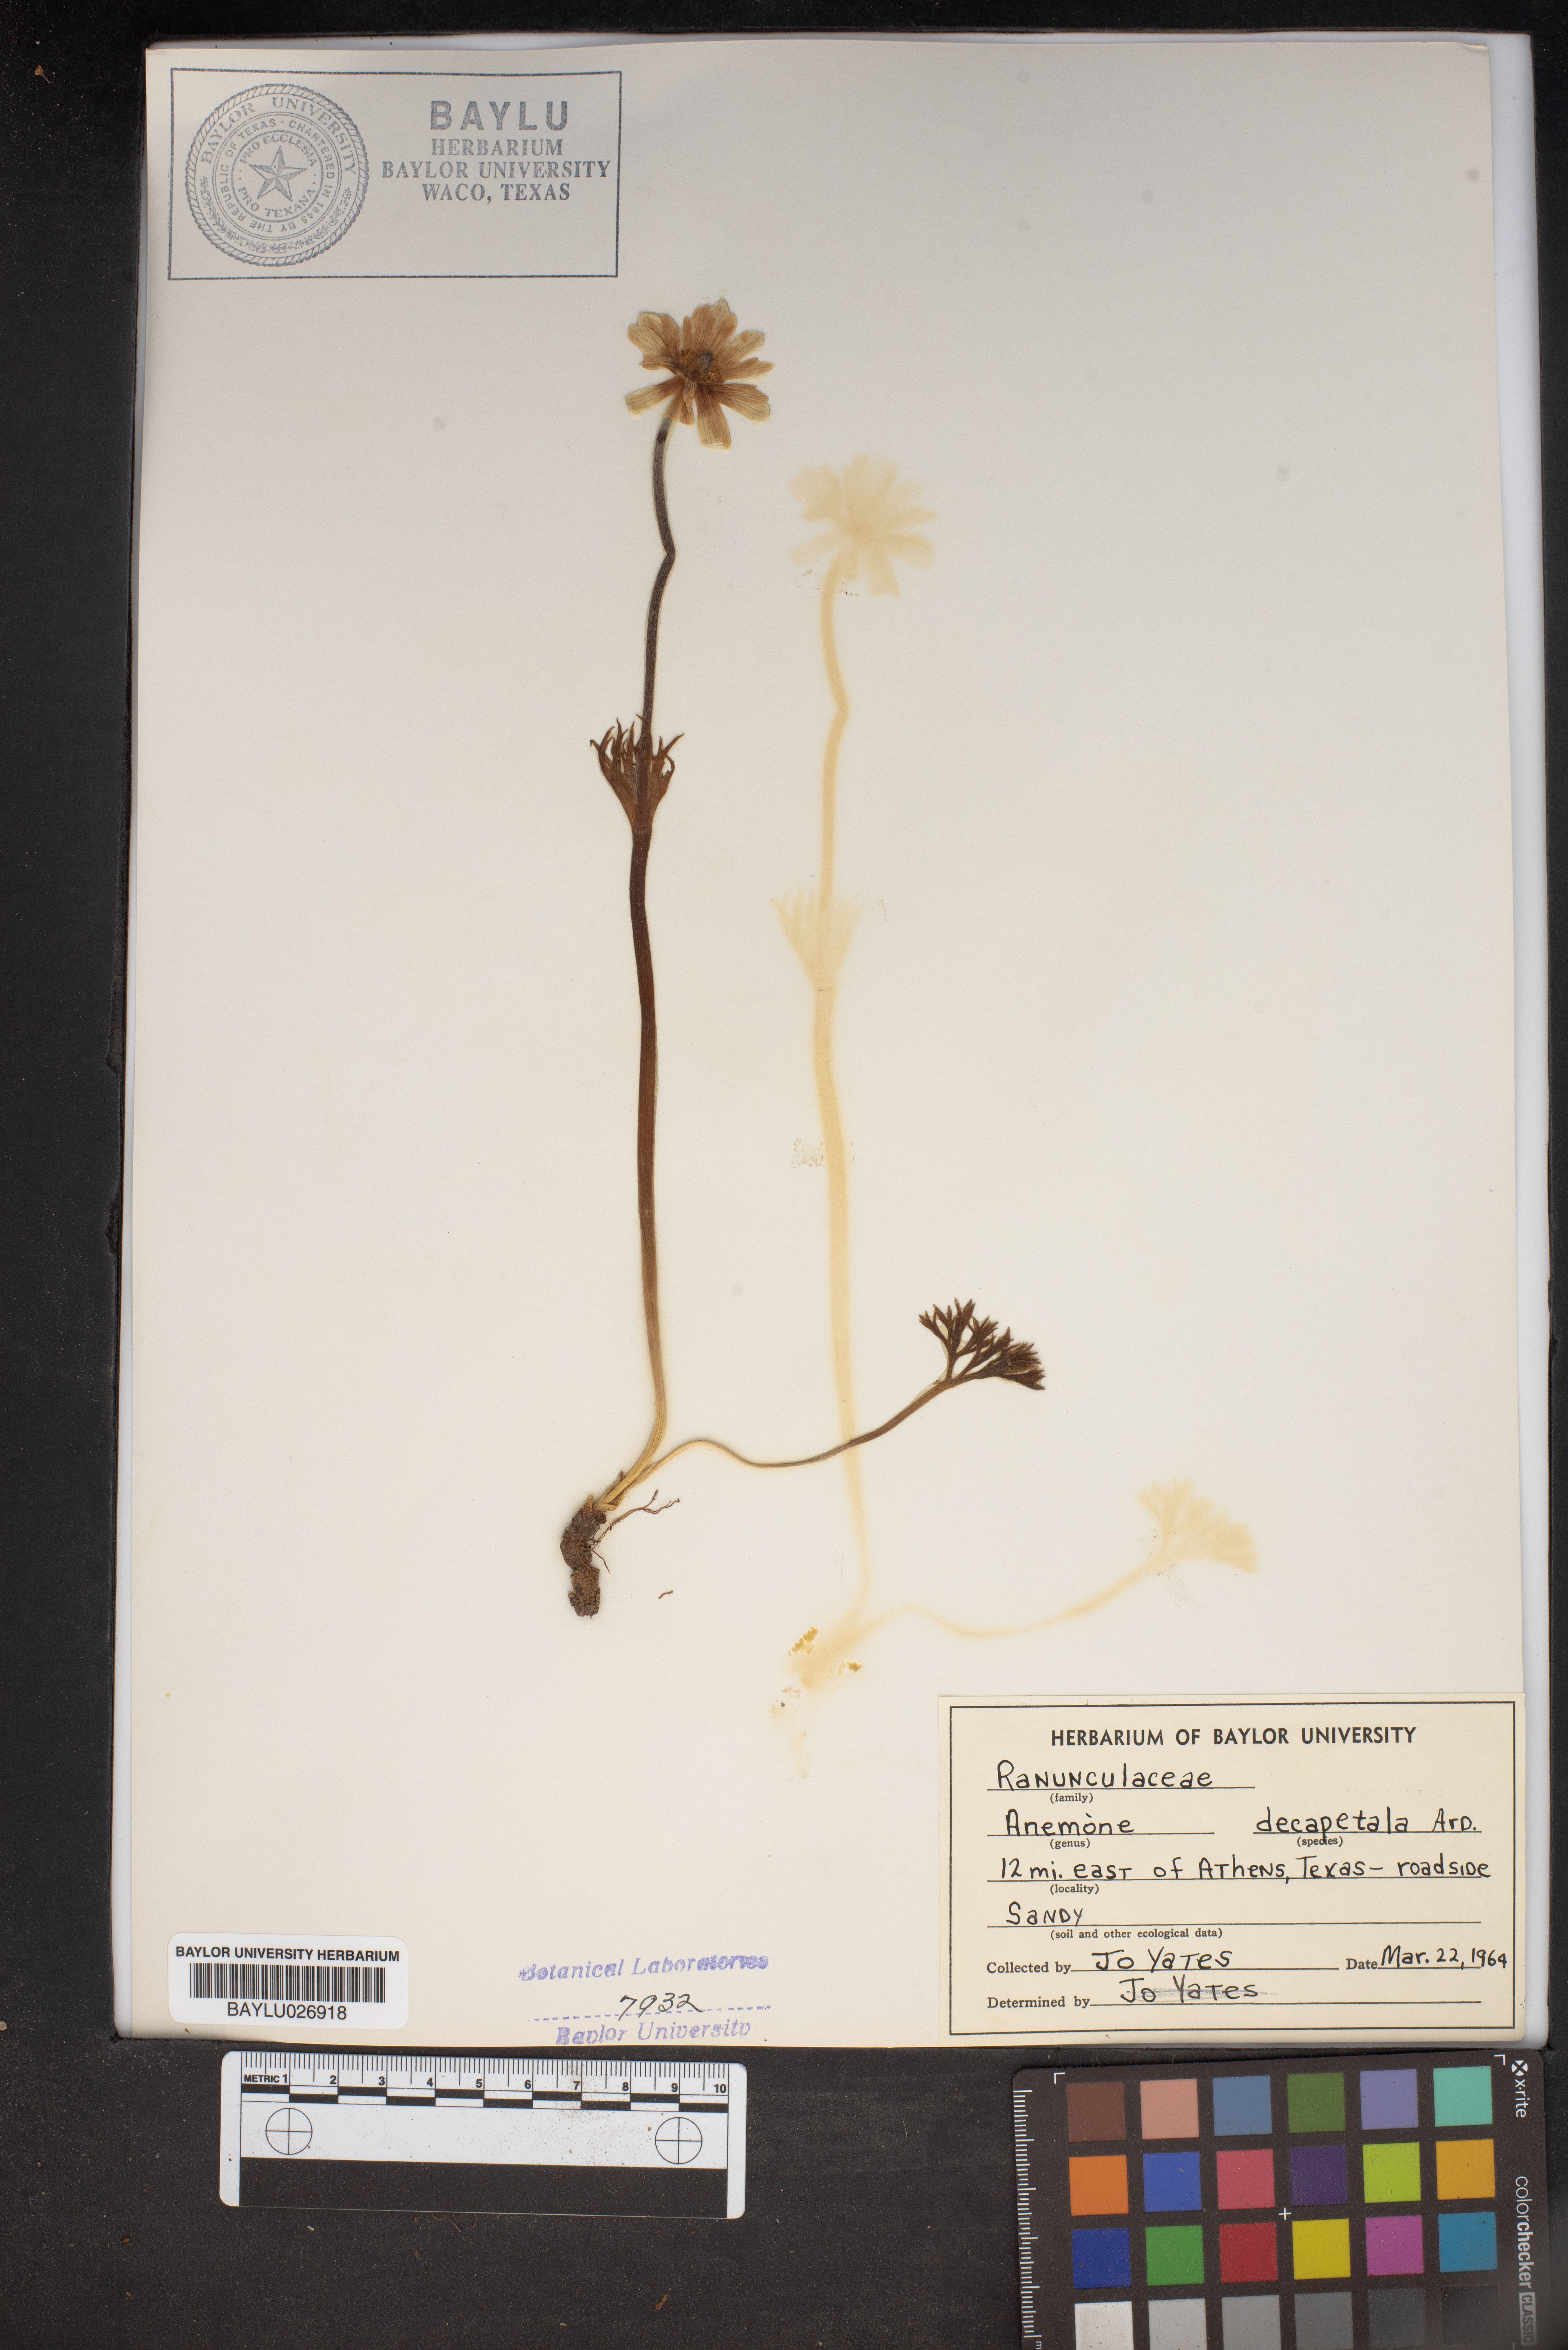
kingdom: Plantae
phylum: Tracheophyta
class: Magnoliopsida
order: Ranunculales
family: Ranunculaceae
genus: Anemone
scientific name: Anemone decapetala
